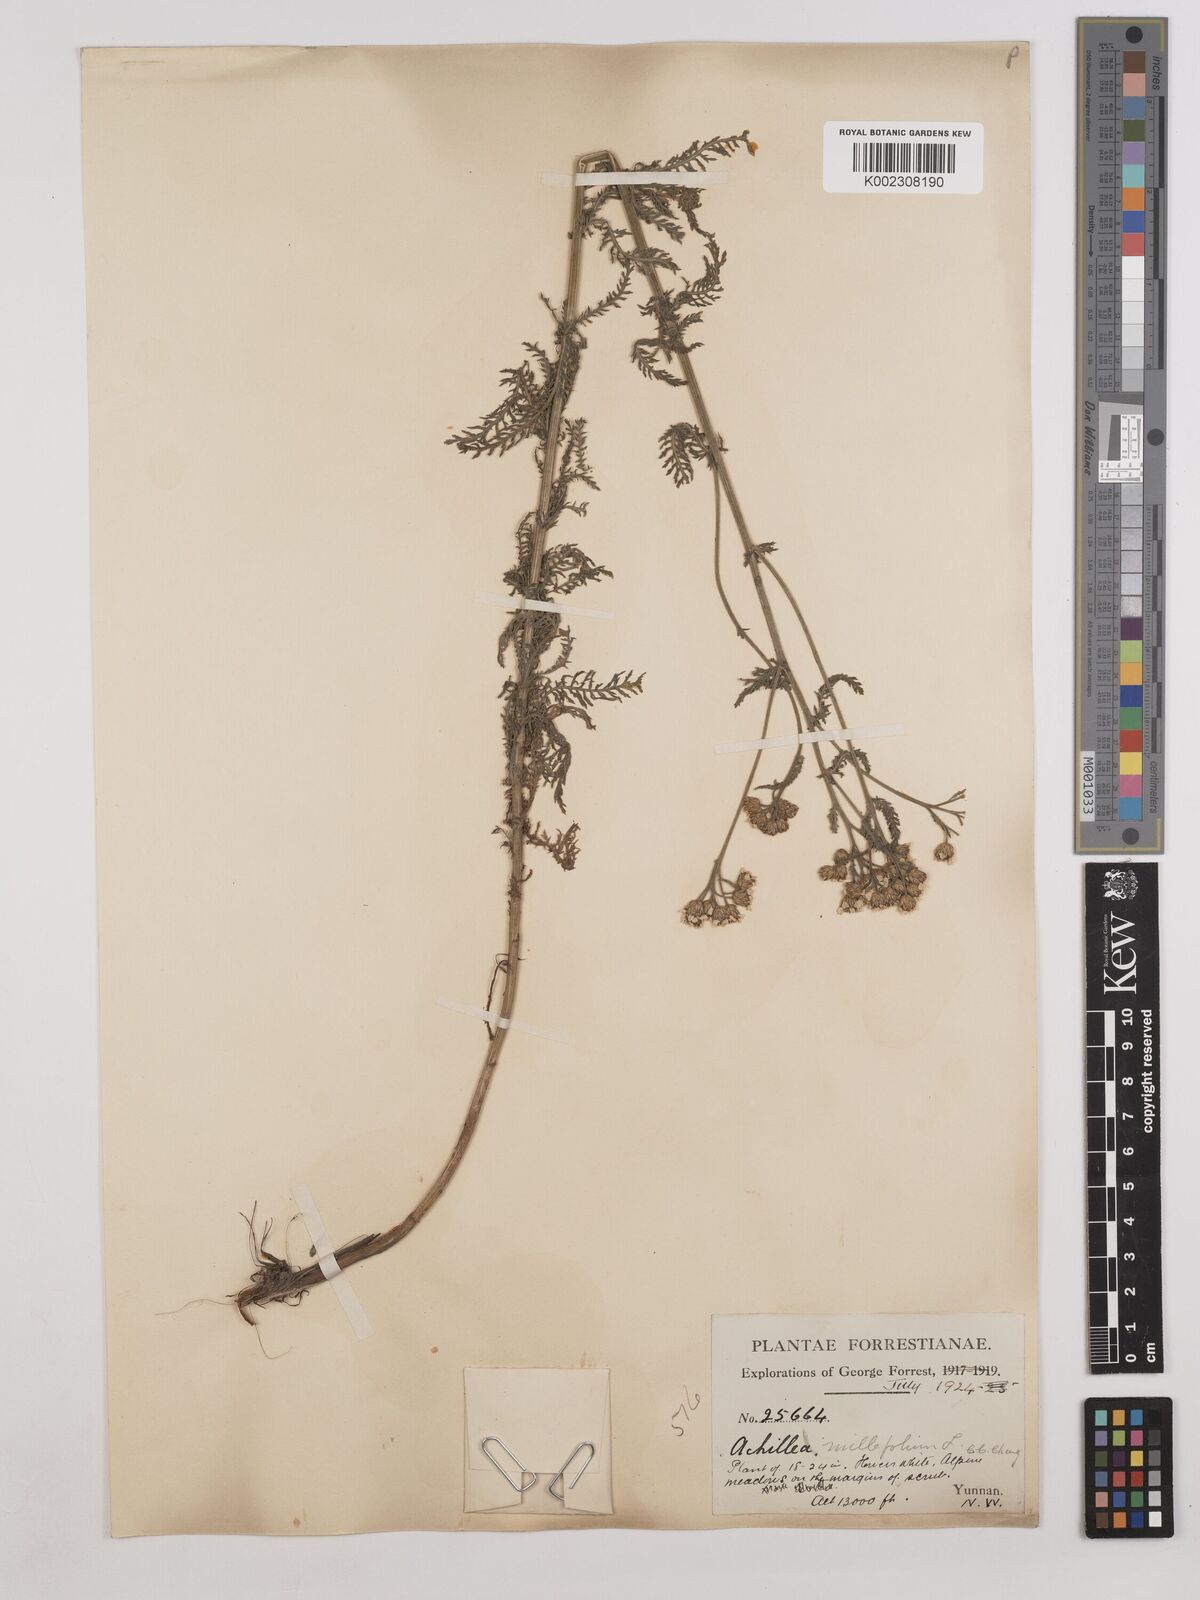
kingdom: Plantae
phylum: Tracheophyta
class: Magnoliopsida
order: Asterales
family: Asteraceae
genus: Achillea
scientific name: Achillea alpina
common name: Siberian yarrow
